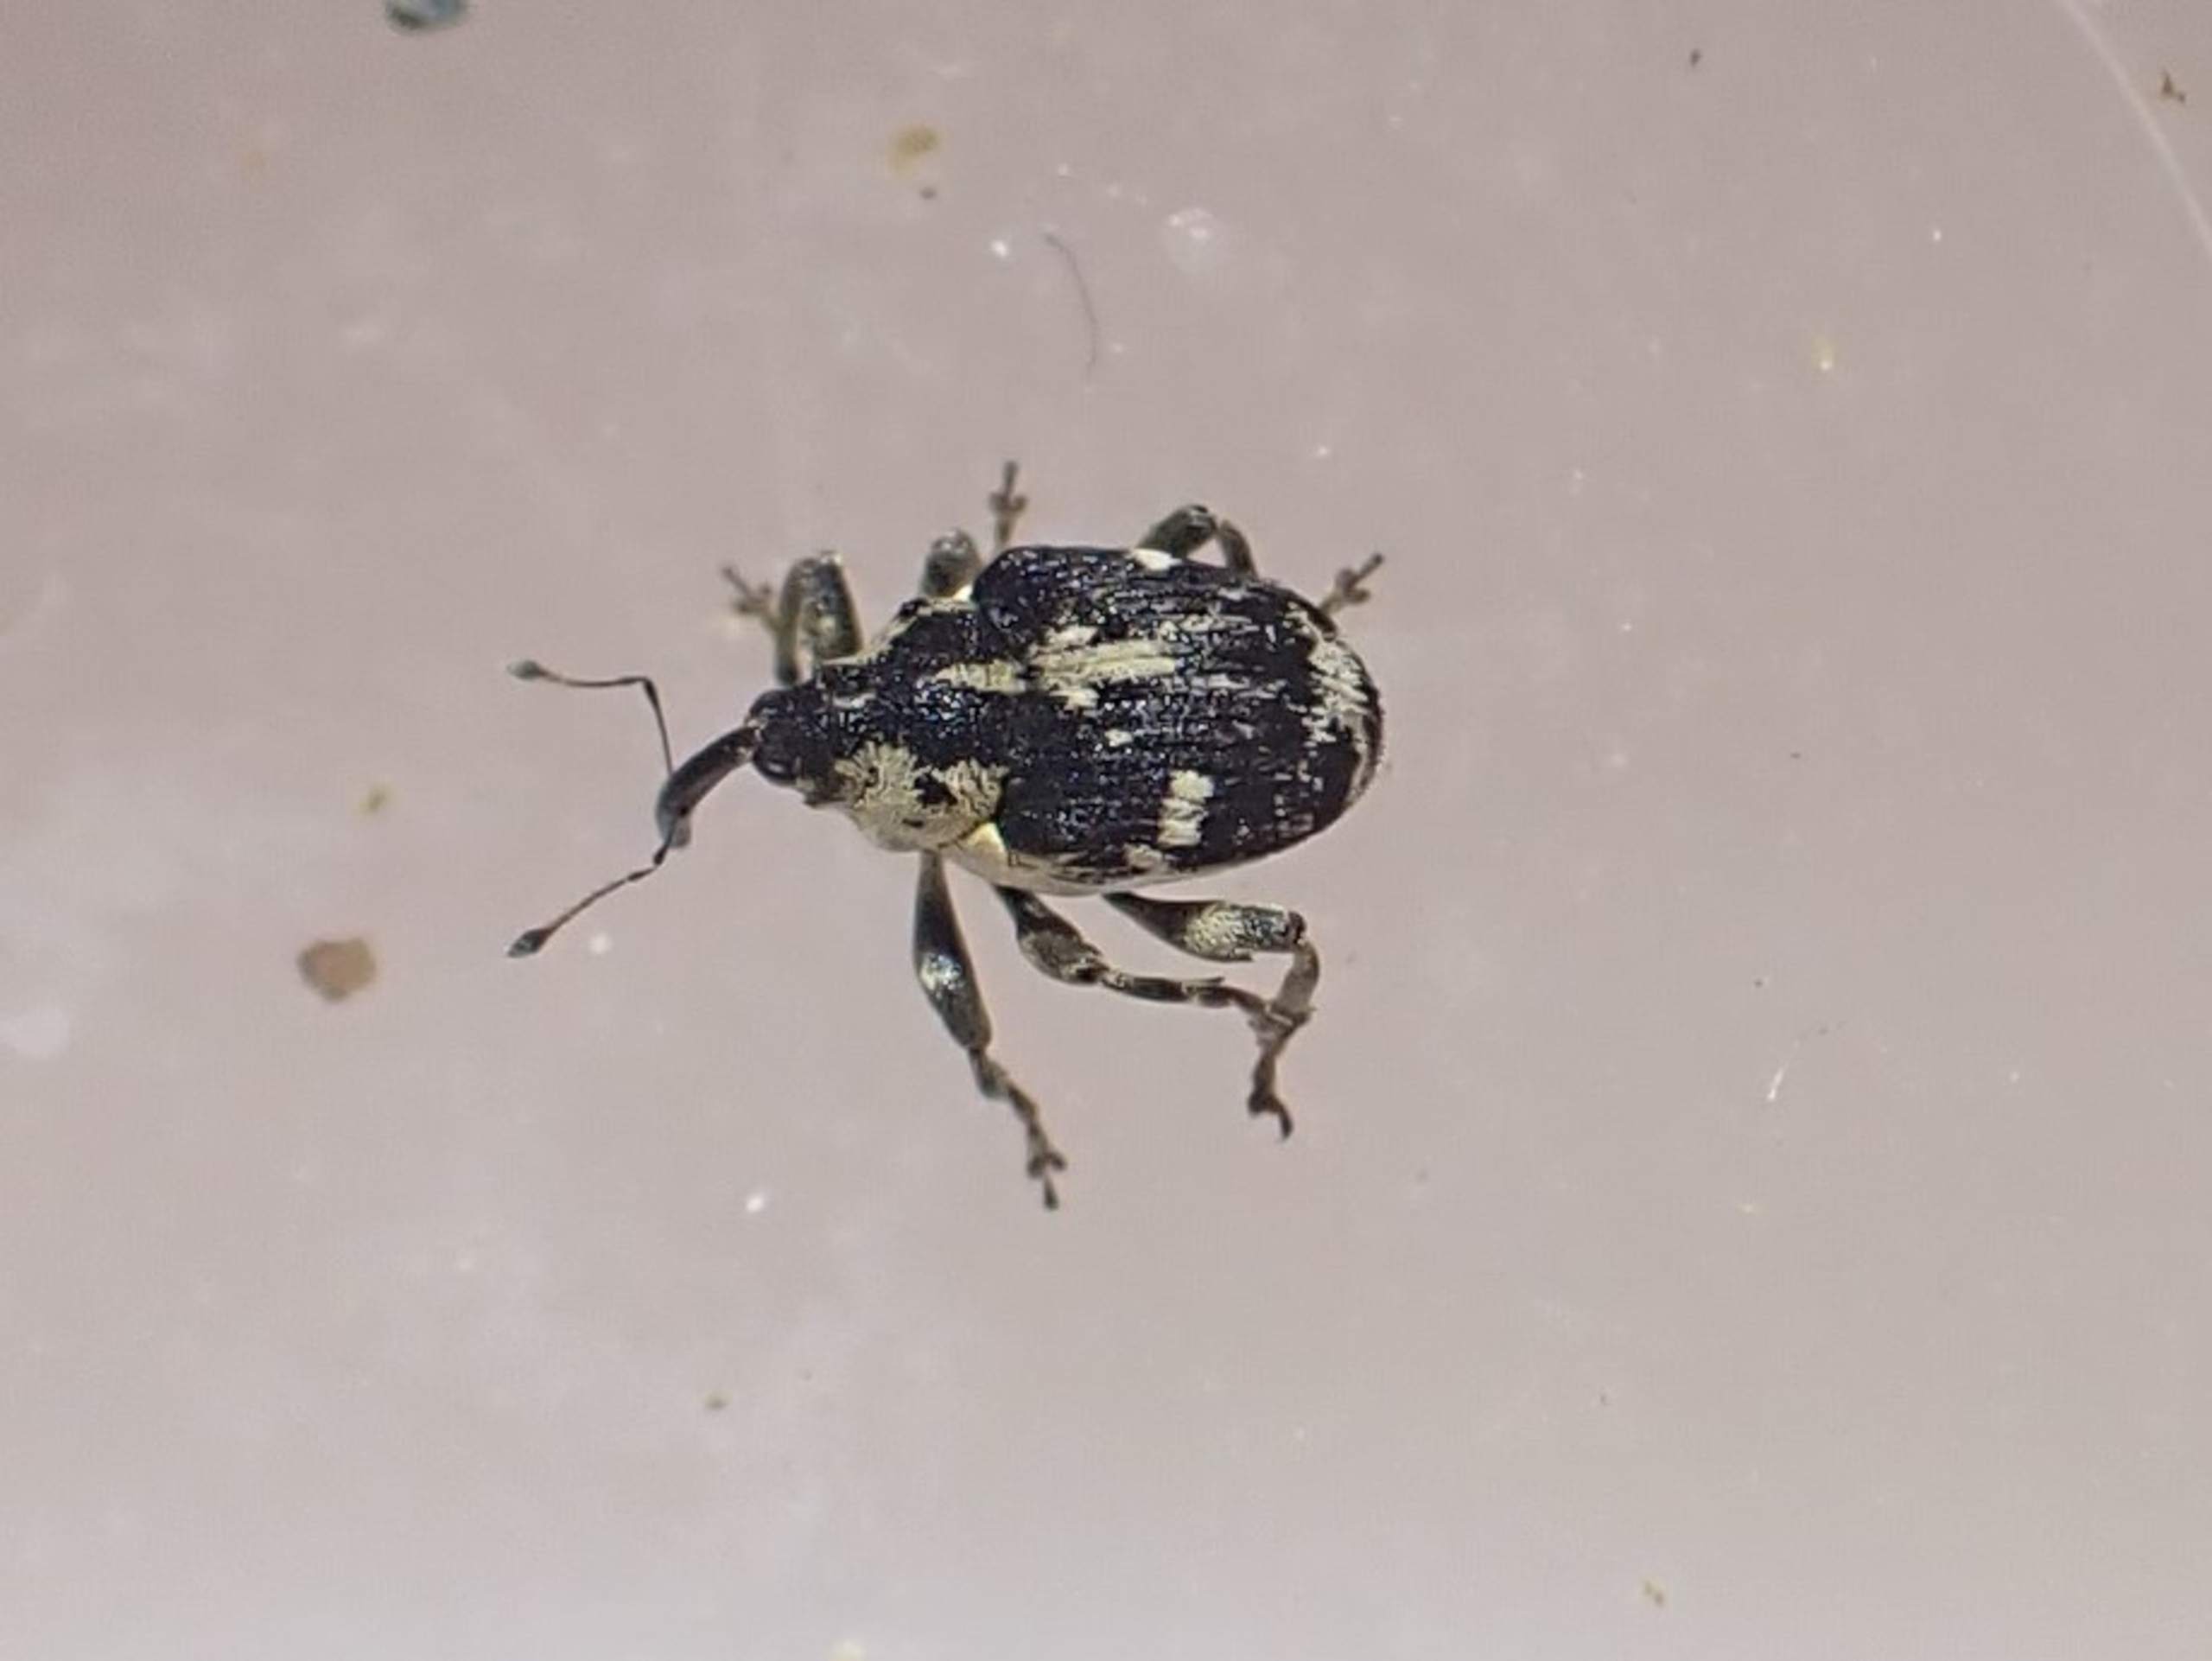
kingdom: Animalia
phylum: Arthropoda
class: Insecta
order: Coleoptera
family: Curculionidae
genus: Hadroplontus
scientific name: Hadroplontus litura
